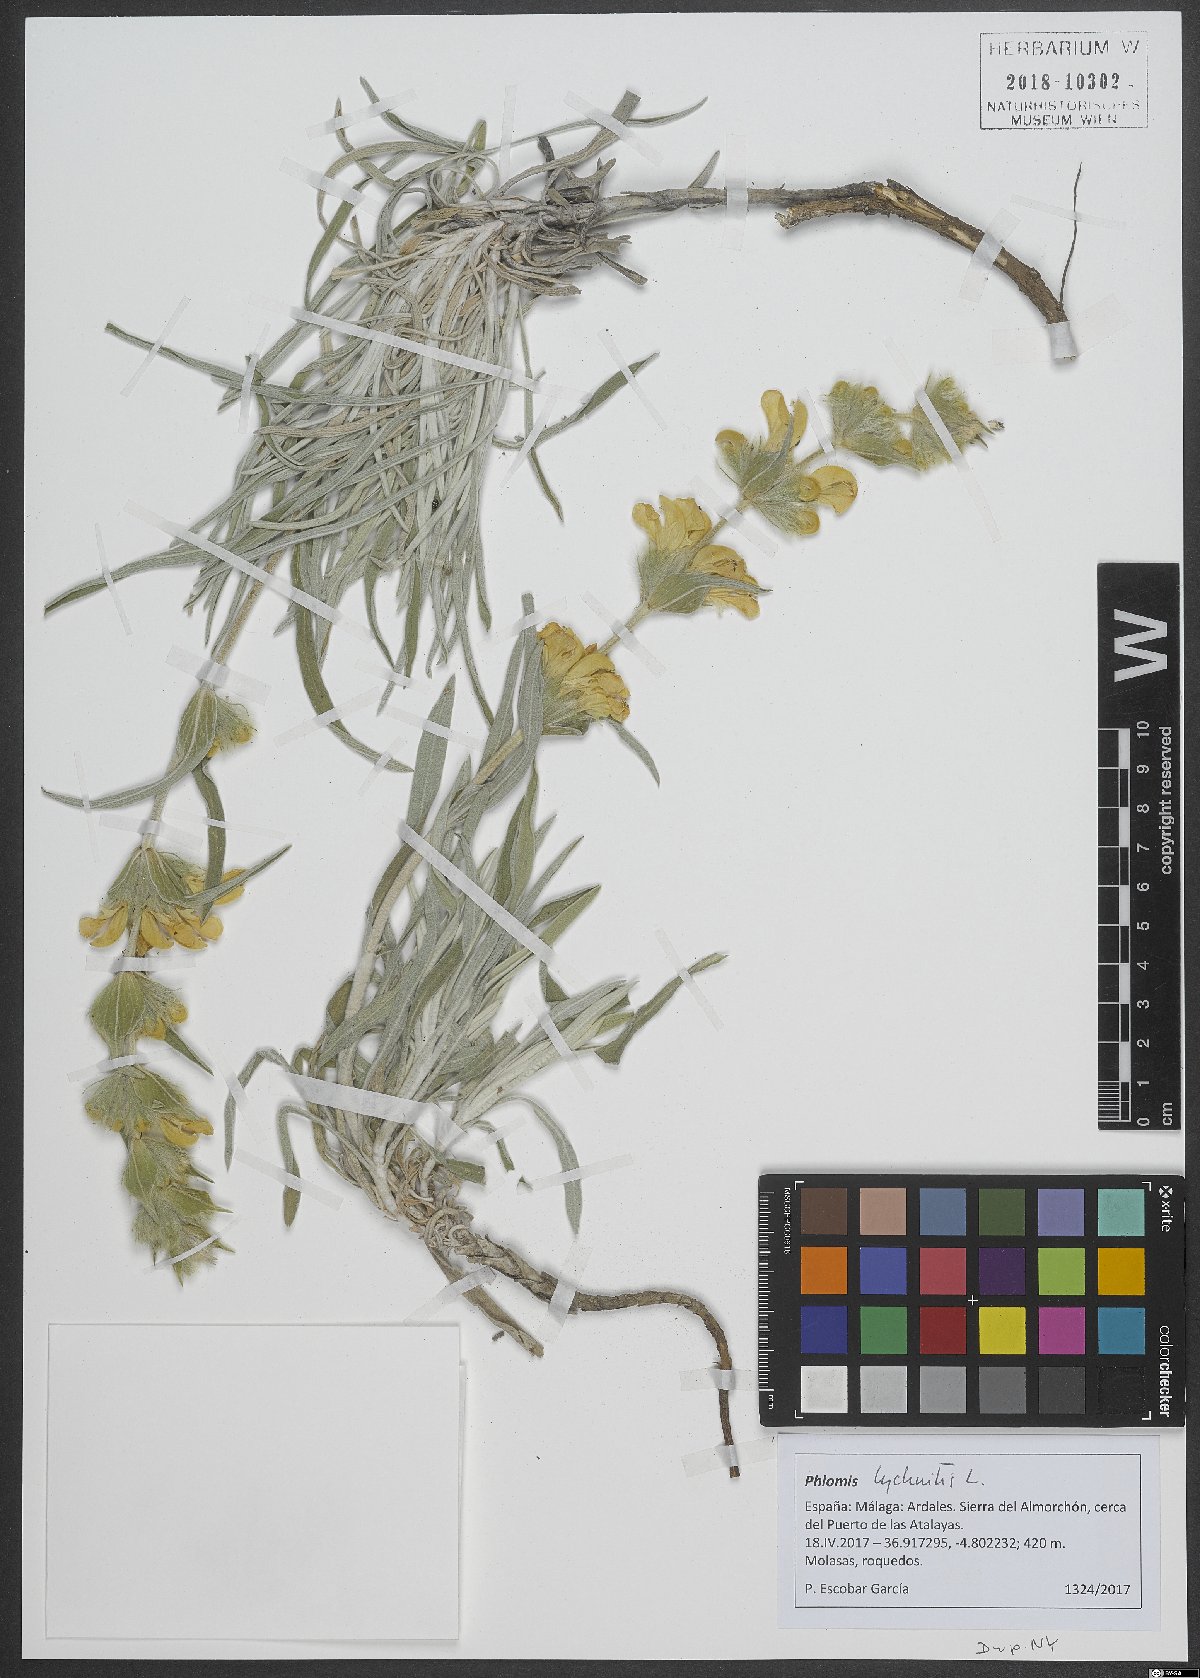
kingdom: Plantae
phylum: Tracheophyta
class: Magnoliopsida
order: Lamiales
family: Lamiaceae
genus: Phlomis
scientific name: Phlomis lychnitis
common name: Lampwickplant
